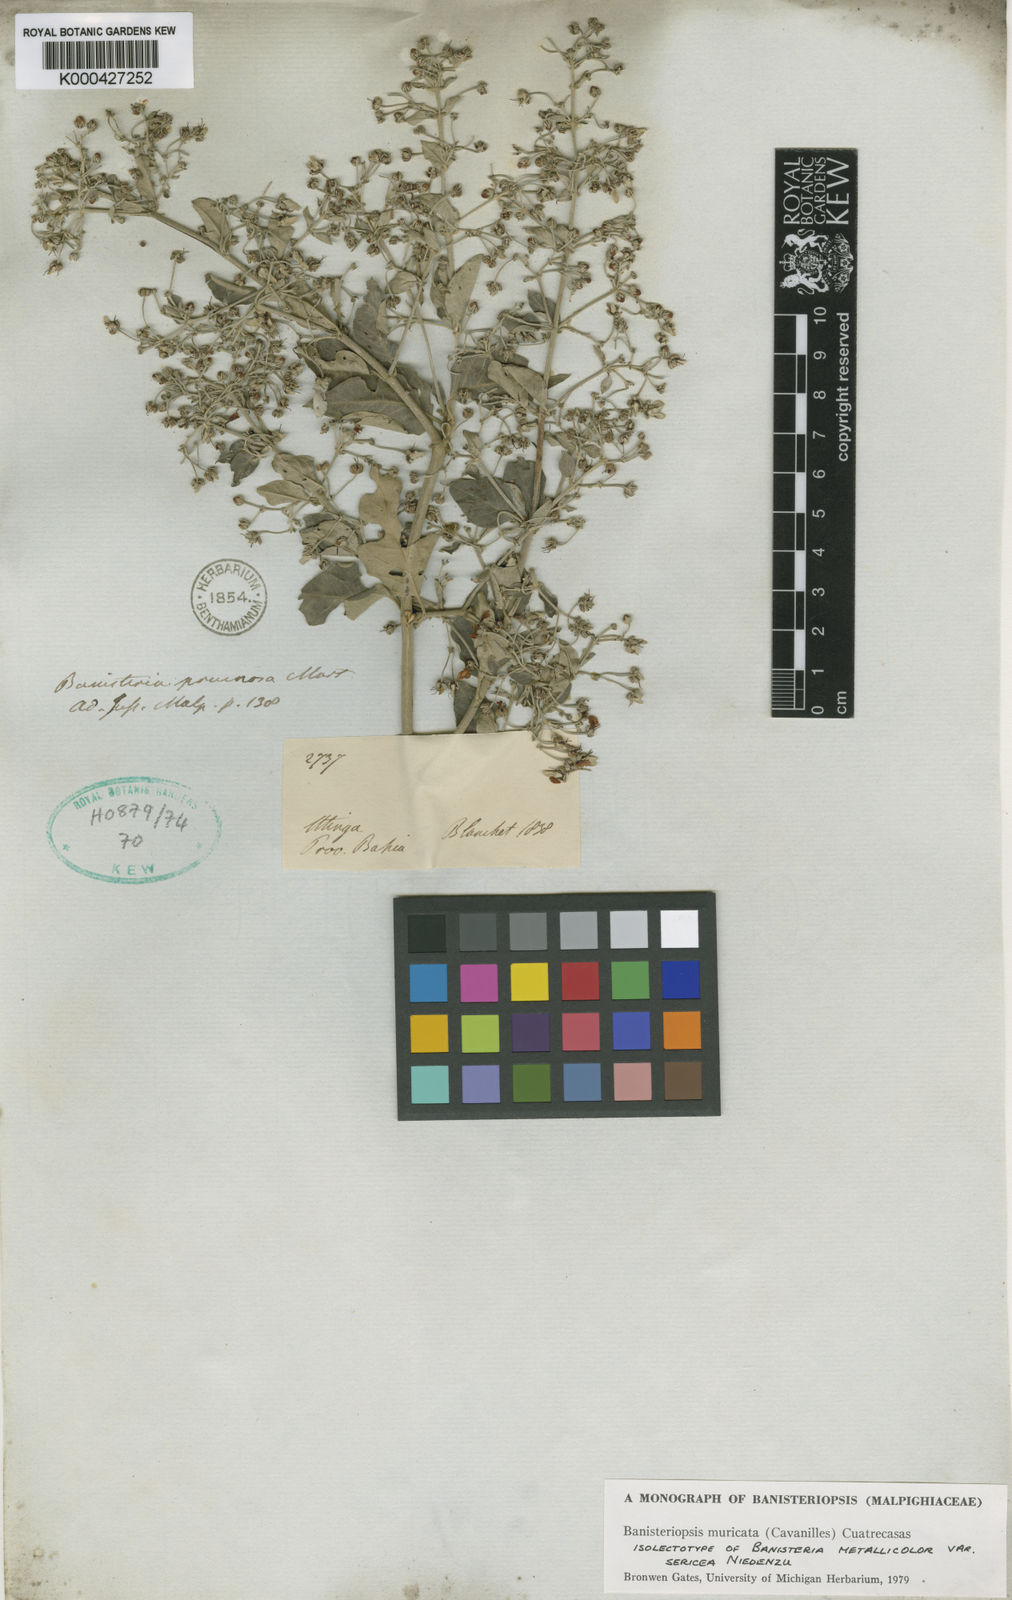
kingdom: Plantae
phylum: Tracheophyta
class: Magnoliopsida
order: Malpighiales
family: Malpighiaceae
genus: Banisteriopsis
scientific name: Banisteriopsis muricata
